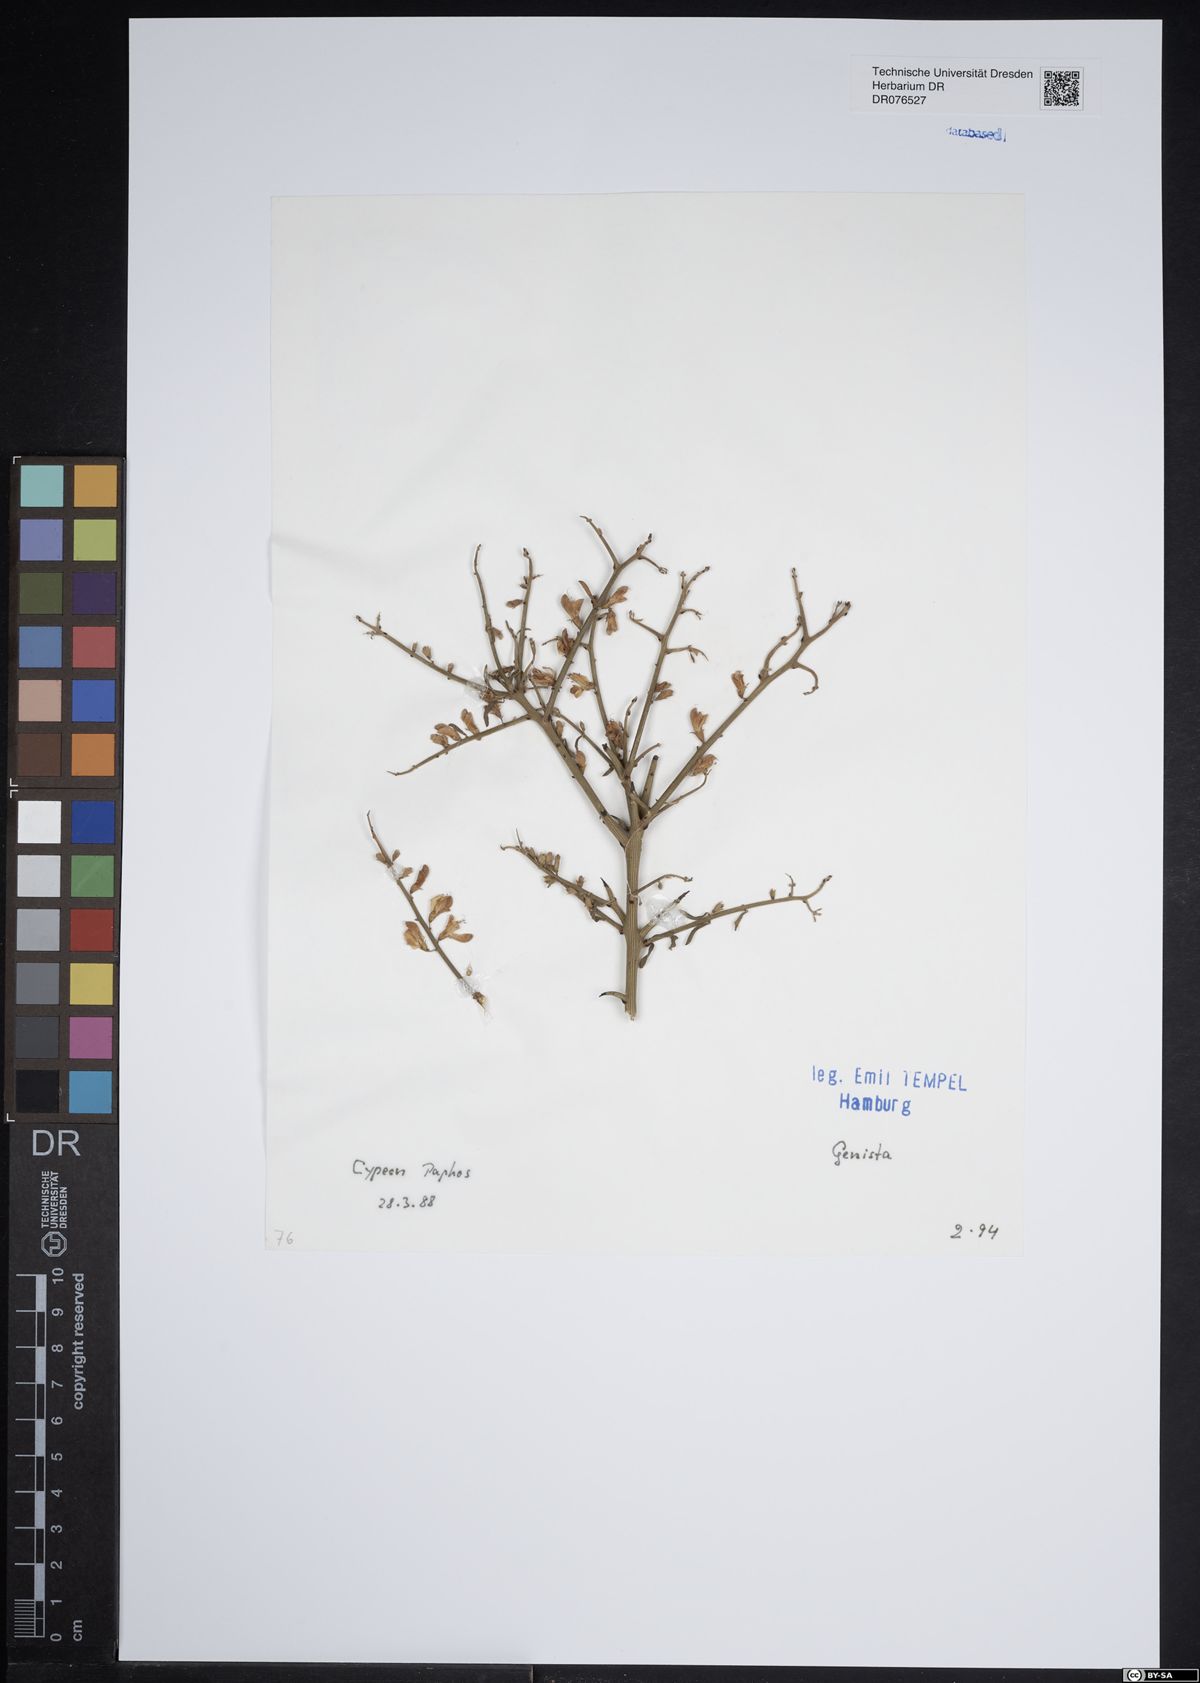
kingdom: Plantae
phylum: Tracheophyta
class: Magnoliopsida
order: Fabales
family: Fabaceae
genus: Genista
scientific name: Genista
